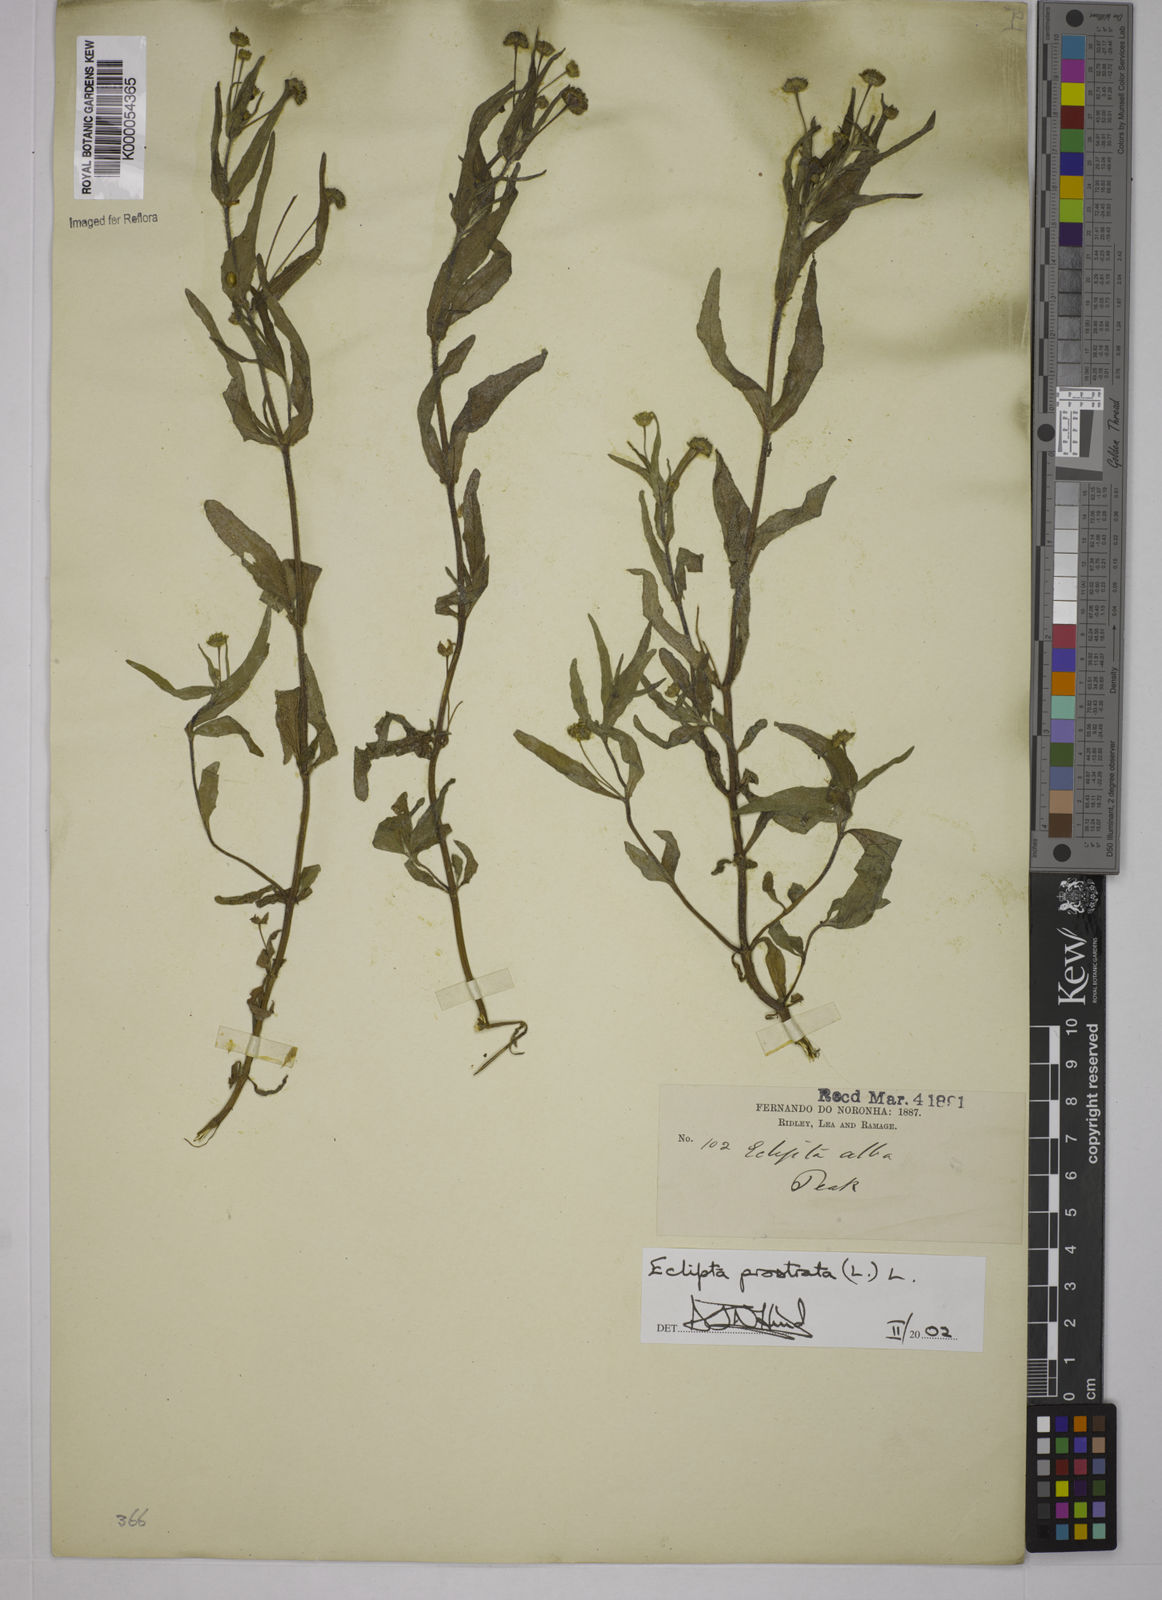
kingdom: Plantae
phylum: Tracheophyta
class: Magnoliopsida
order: Asterales
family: Asteraceae
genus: Eclipta
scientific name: Eclipta prostrata
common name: False daisy
